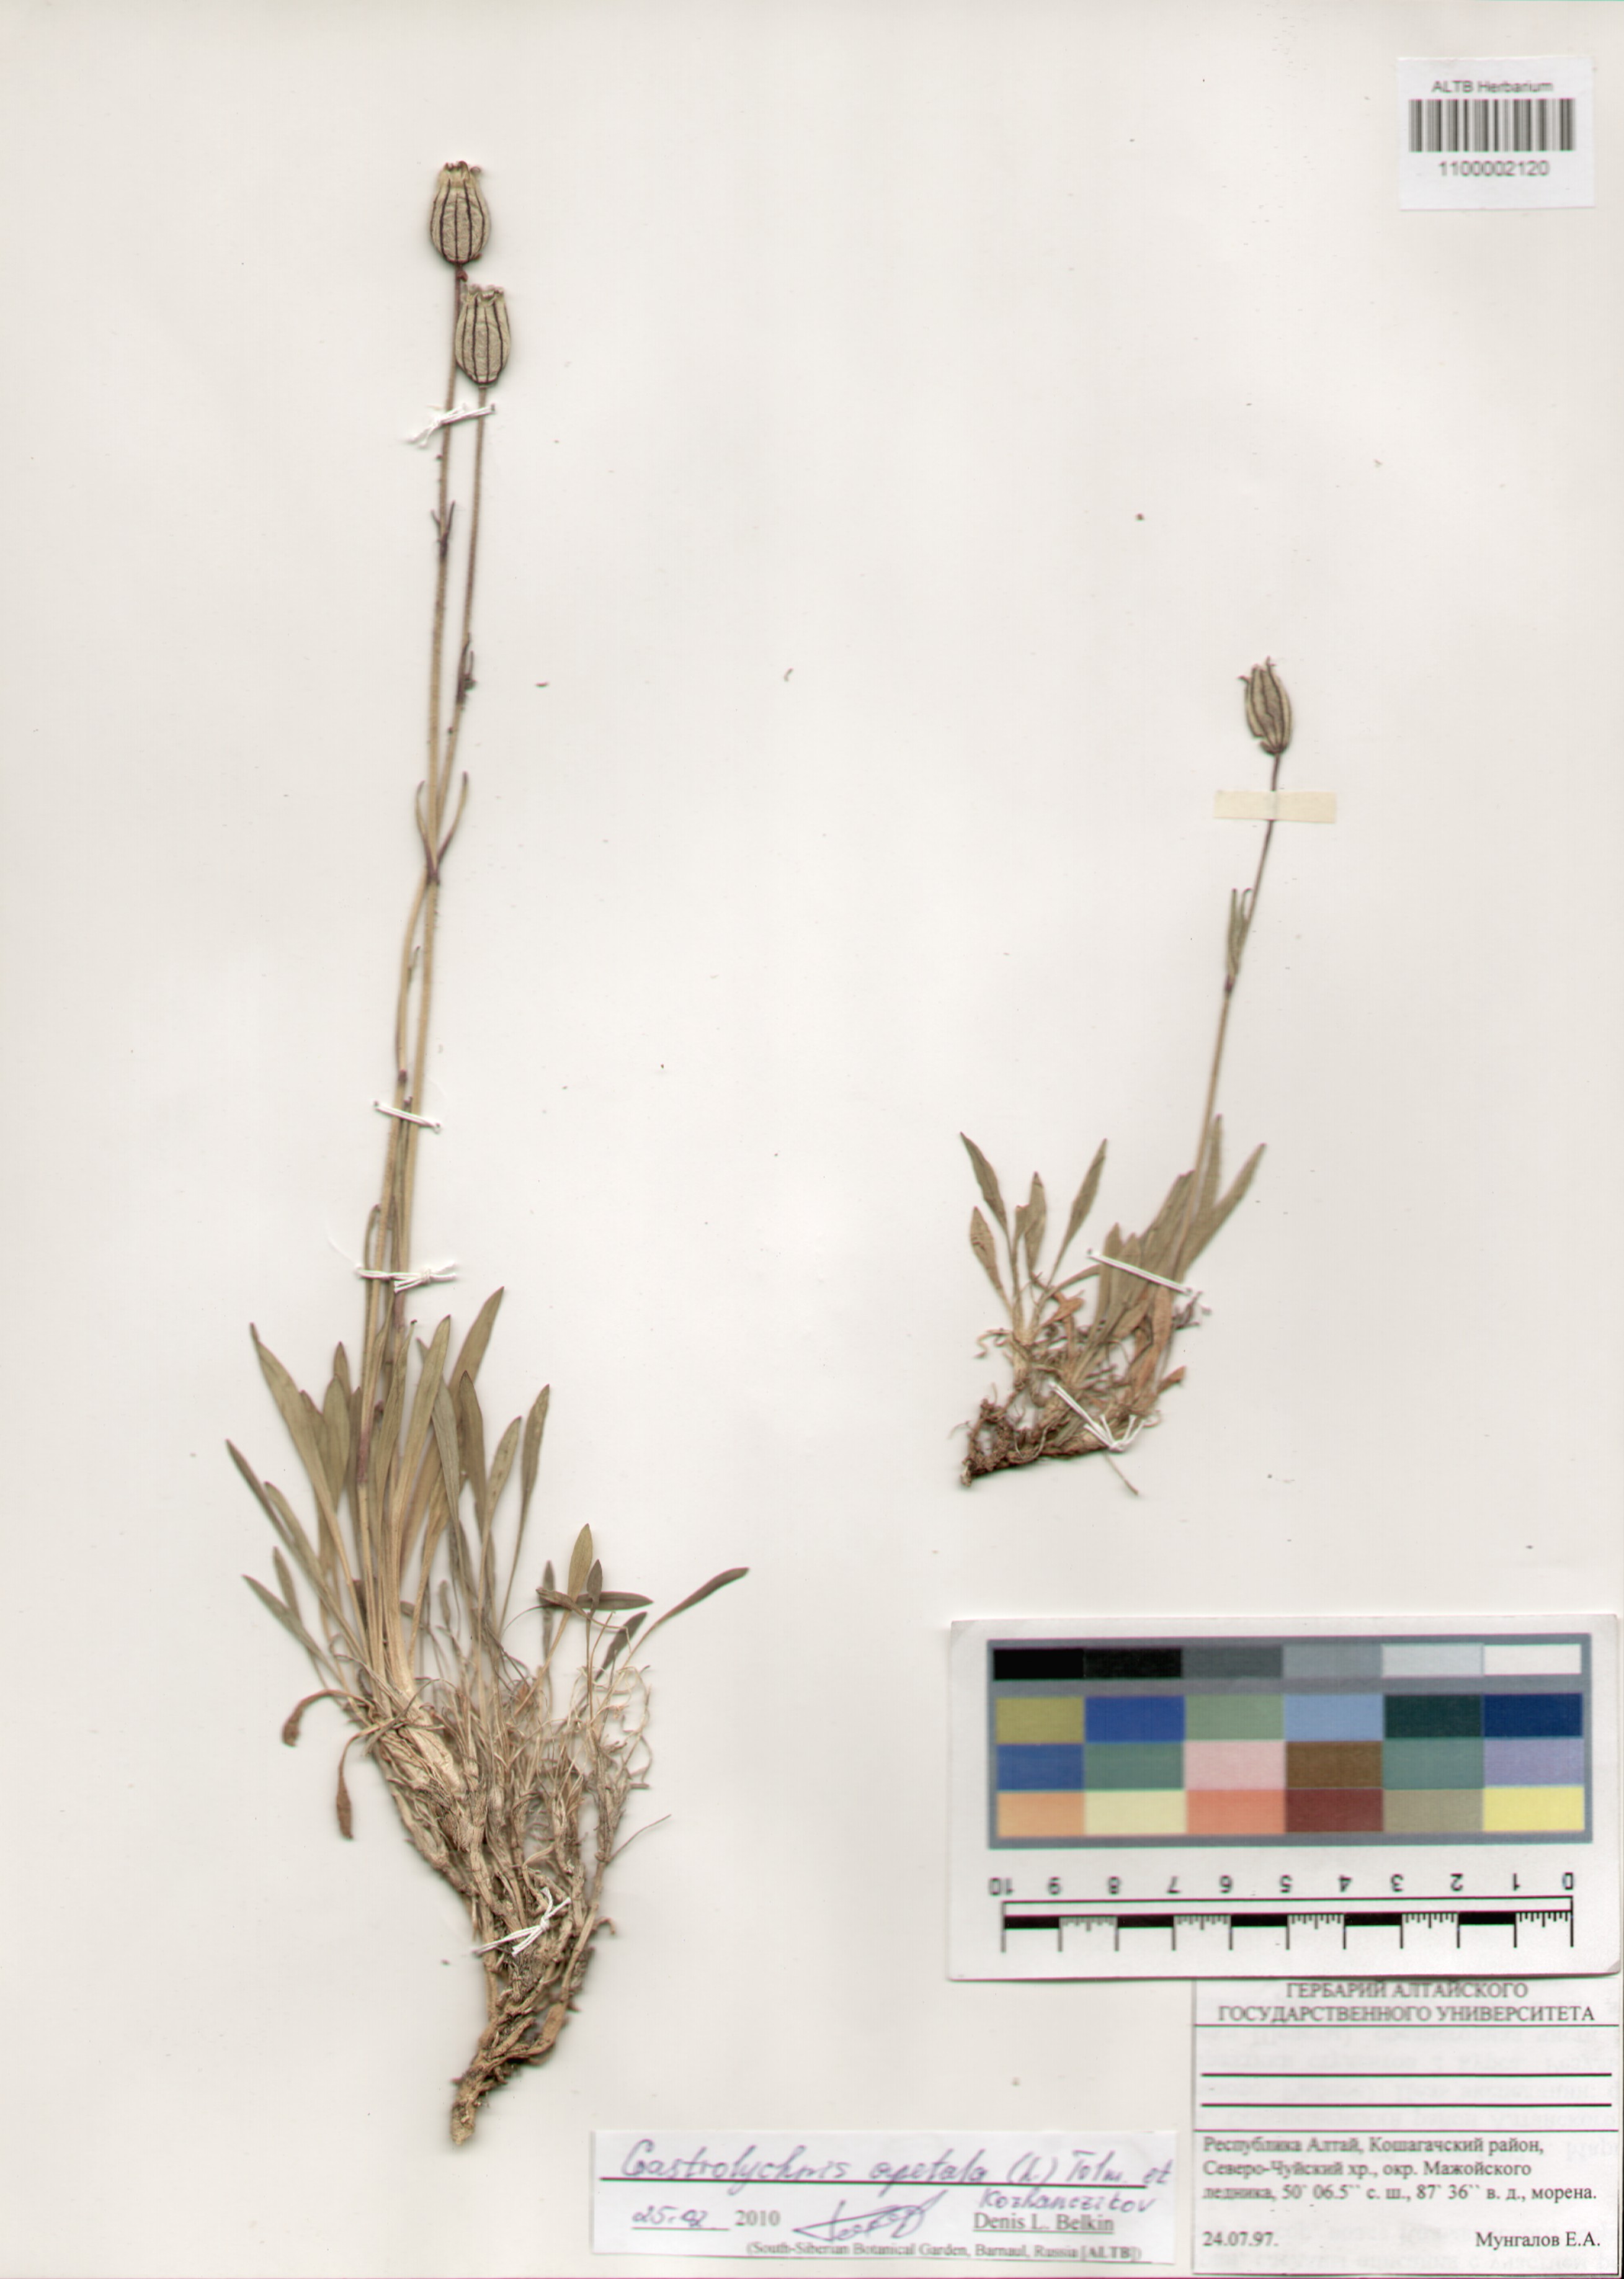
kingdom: Plantae
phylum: Tracheophyta
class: Magnoliopsida
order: Caryophyllales
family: Caryophyllaceae
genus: Silene
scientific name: Silene wahlbergella
